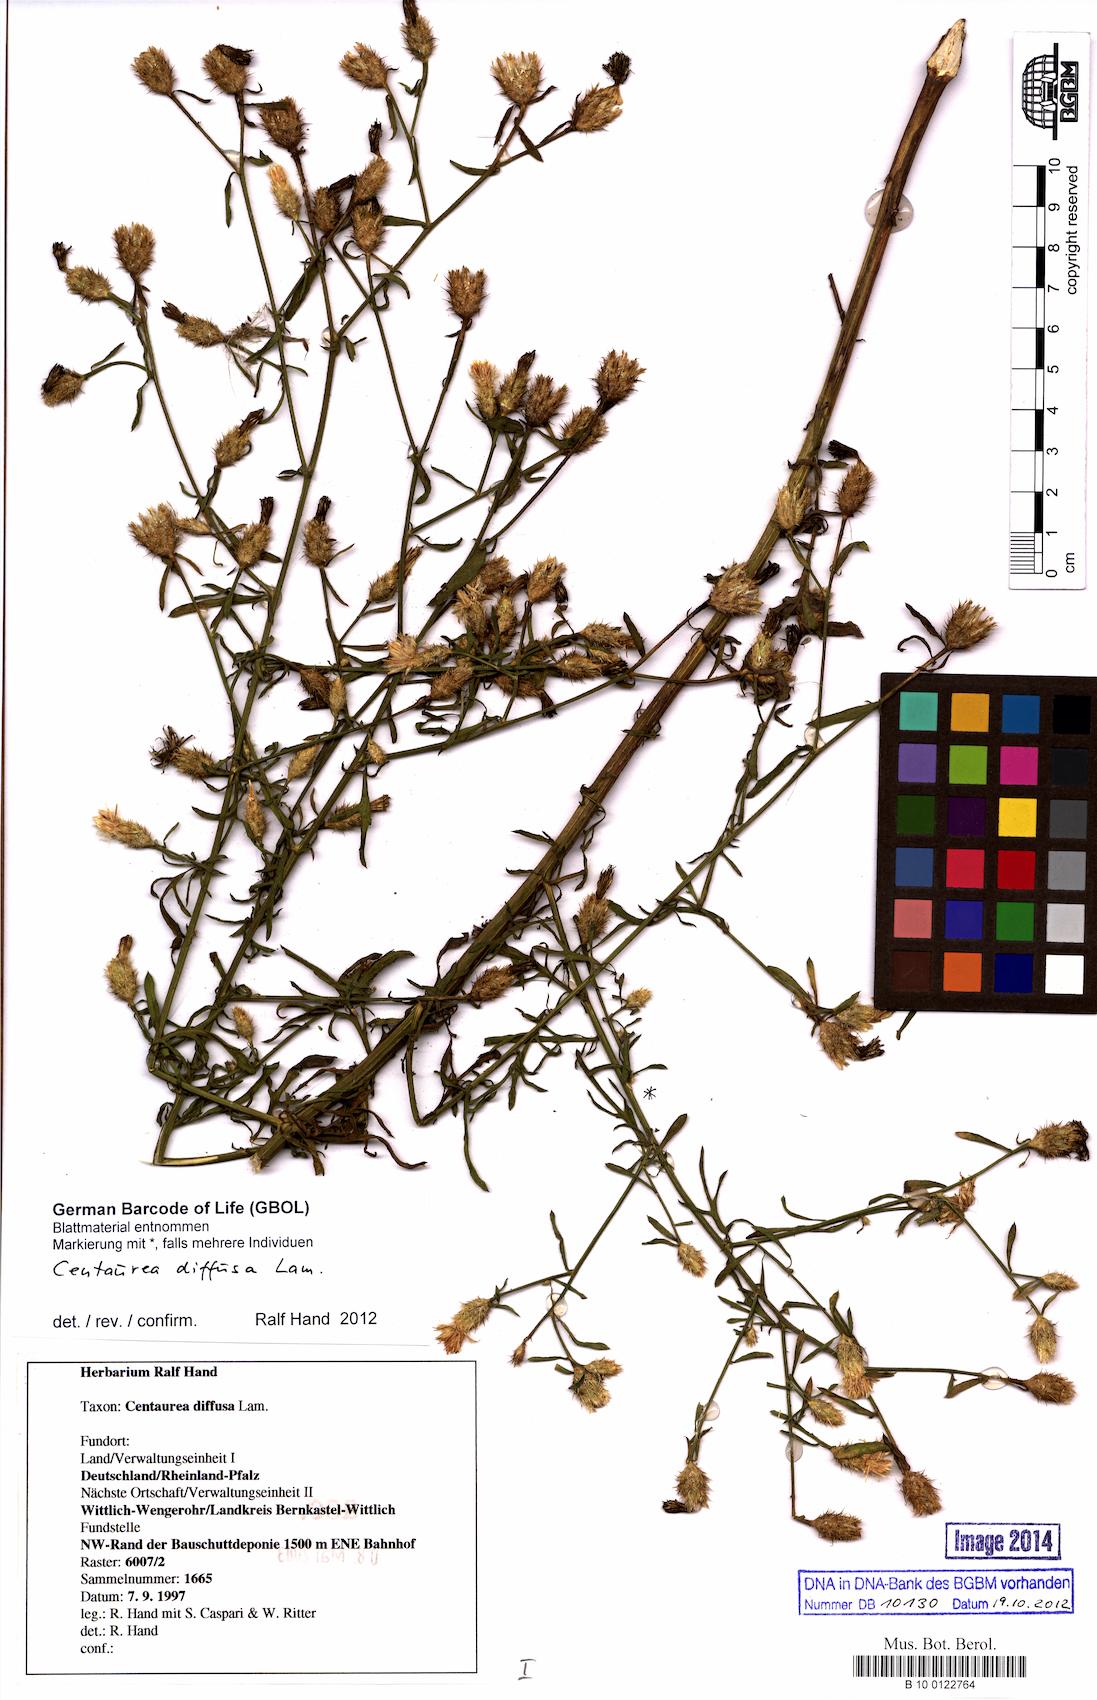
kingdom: Plantae
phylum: Tracheophyta
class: Magnoliopsida
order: Asterales
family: Asteraceae
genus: Centaurea
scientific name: Centaurea diffusa
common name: Diffuse knapweed
